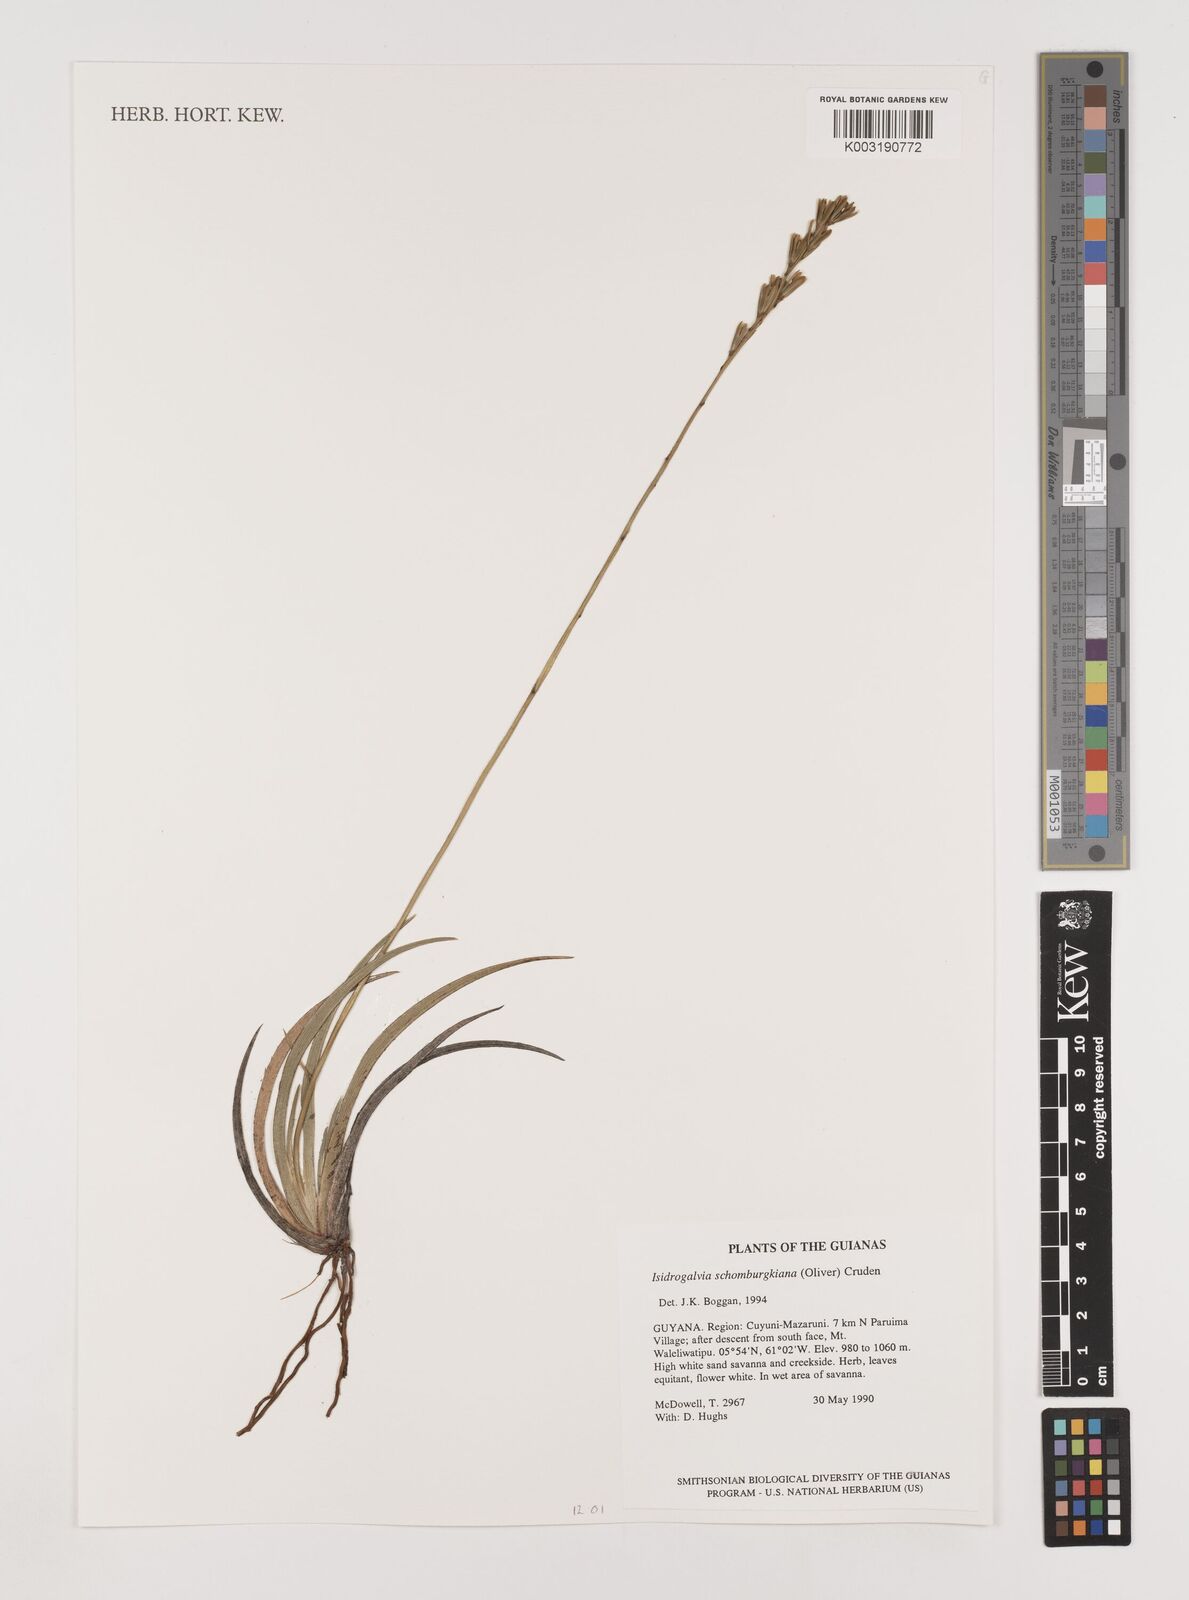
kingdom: Plantae
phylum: Tracheophyta
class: Liliopsida
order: Alismatales
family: Tofieldiaceae
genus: Harperocallis
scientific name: Harperocallis schomburgkiana
